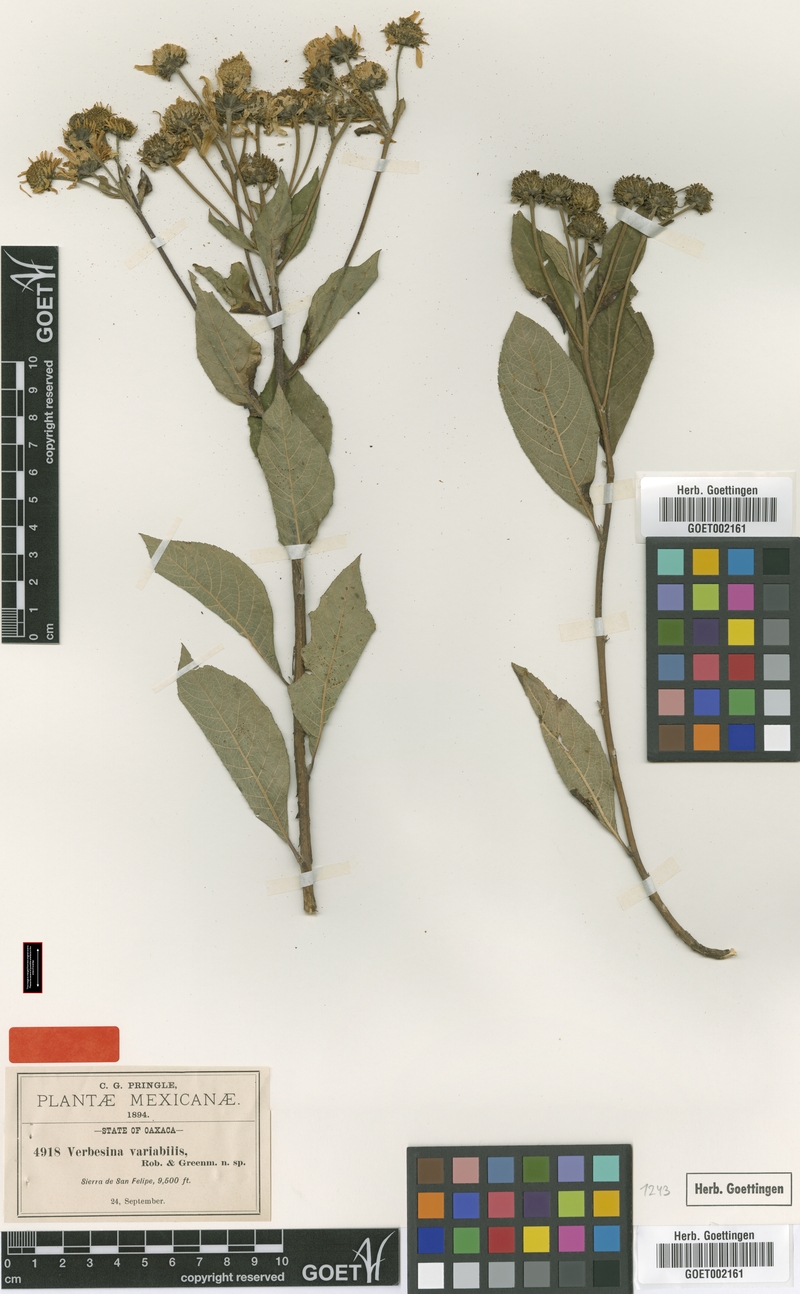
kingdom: Plantae
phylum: Tracheophyta
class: Magnoliopsida
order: Asterales
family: Asteraceae
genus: Verbesina
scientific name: Verbesina liebmannii
